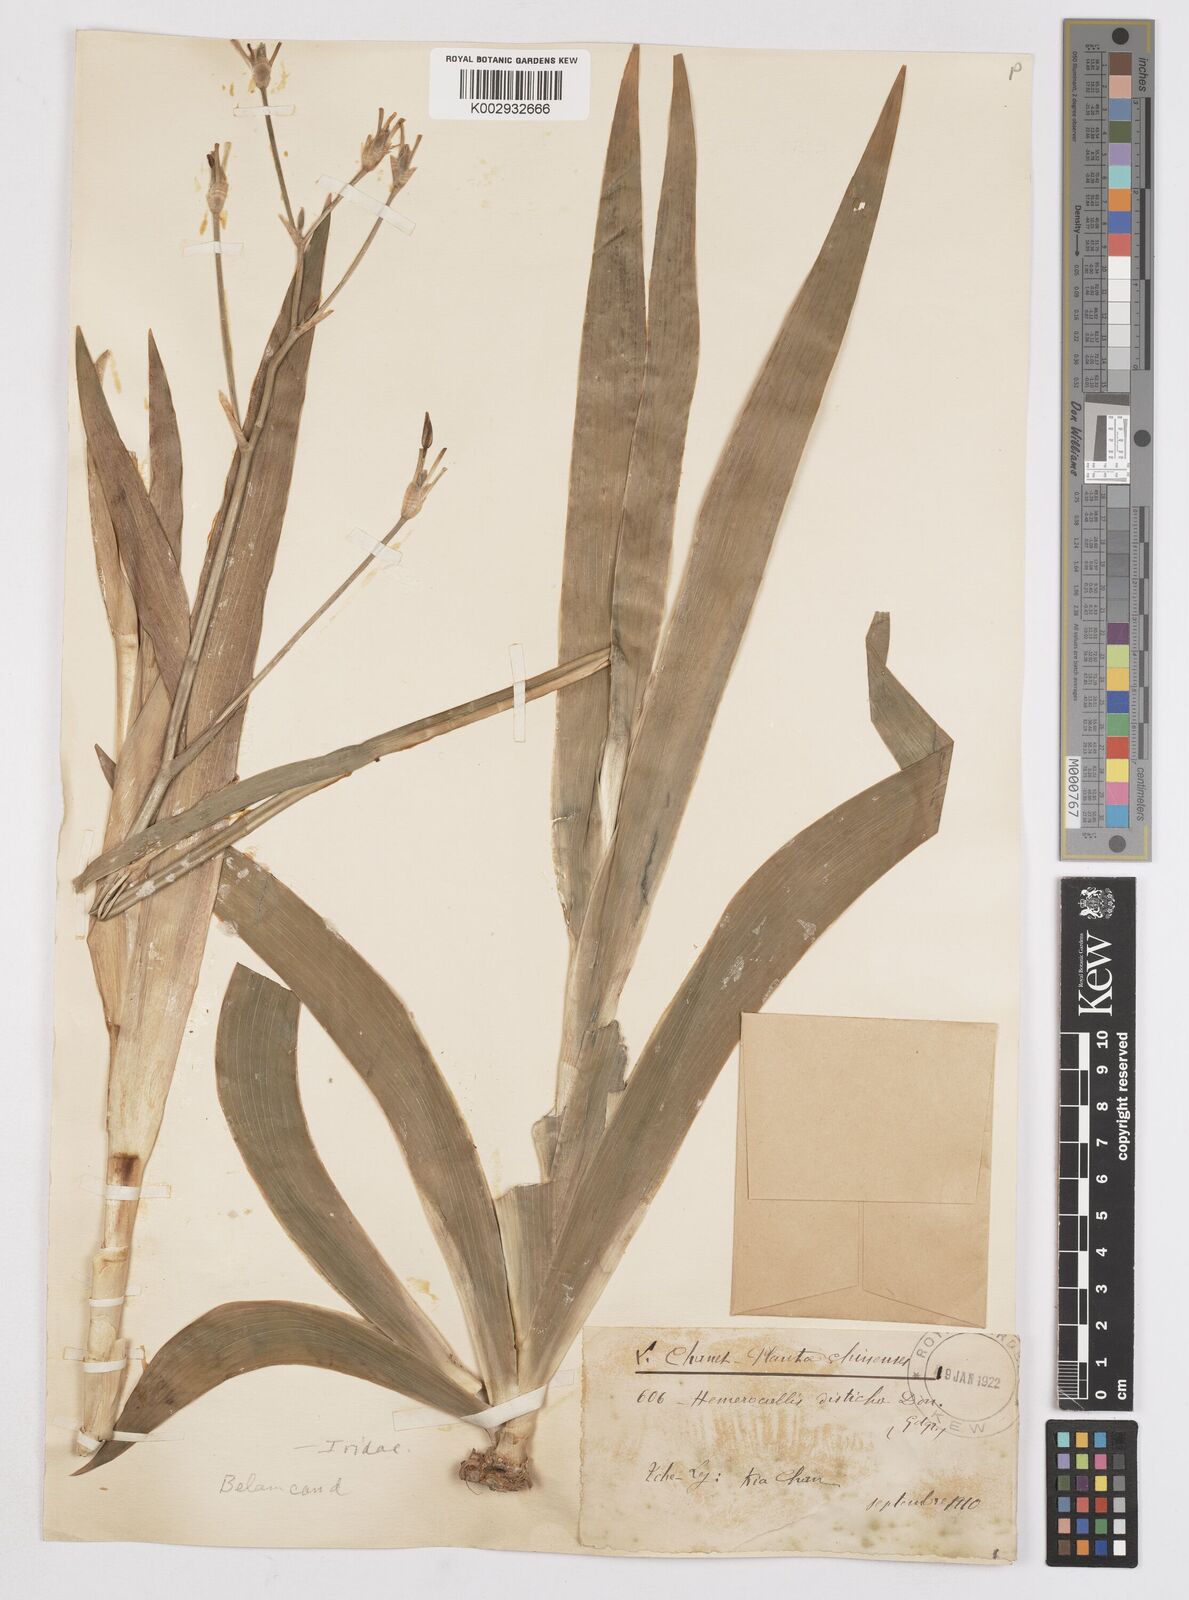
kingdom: Plantae
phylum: Tracheophyta
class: Liliopsida
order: Asparagales
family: Iridaceae
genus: Iris
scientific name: Iris
